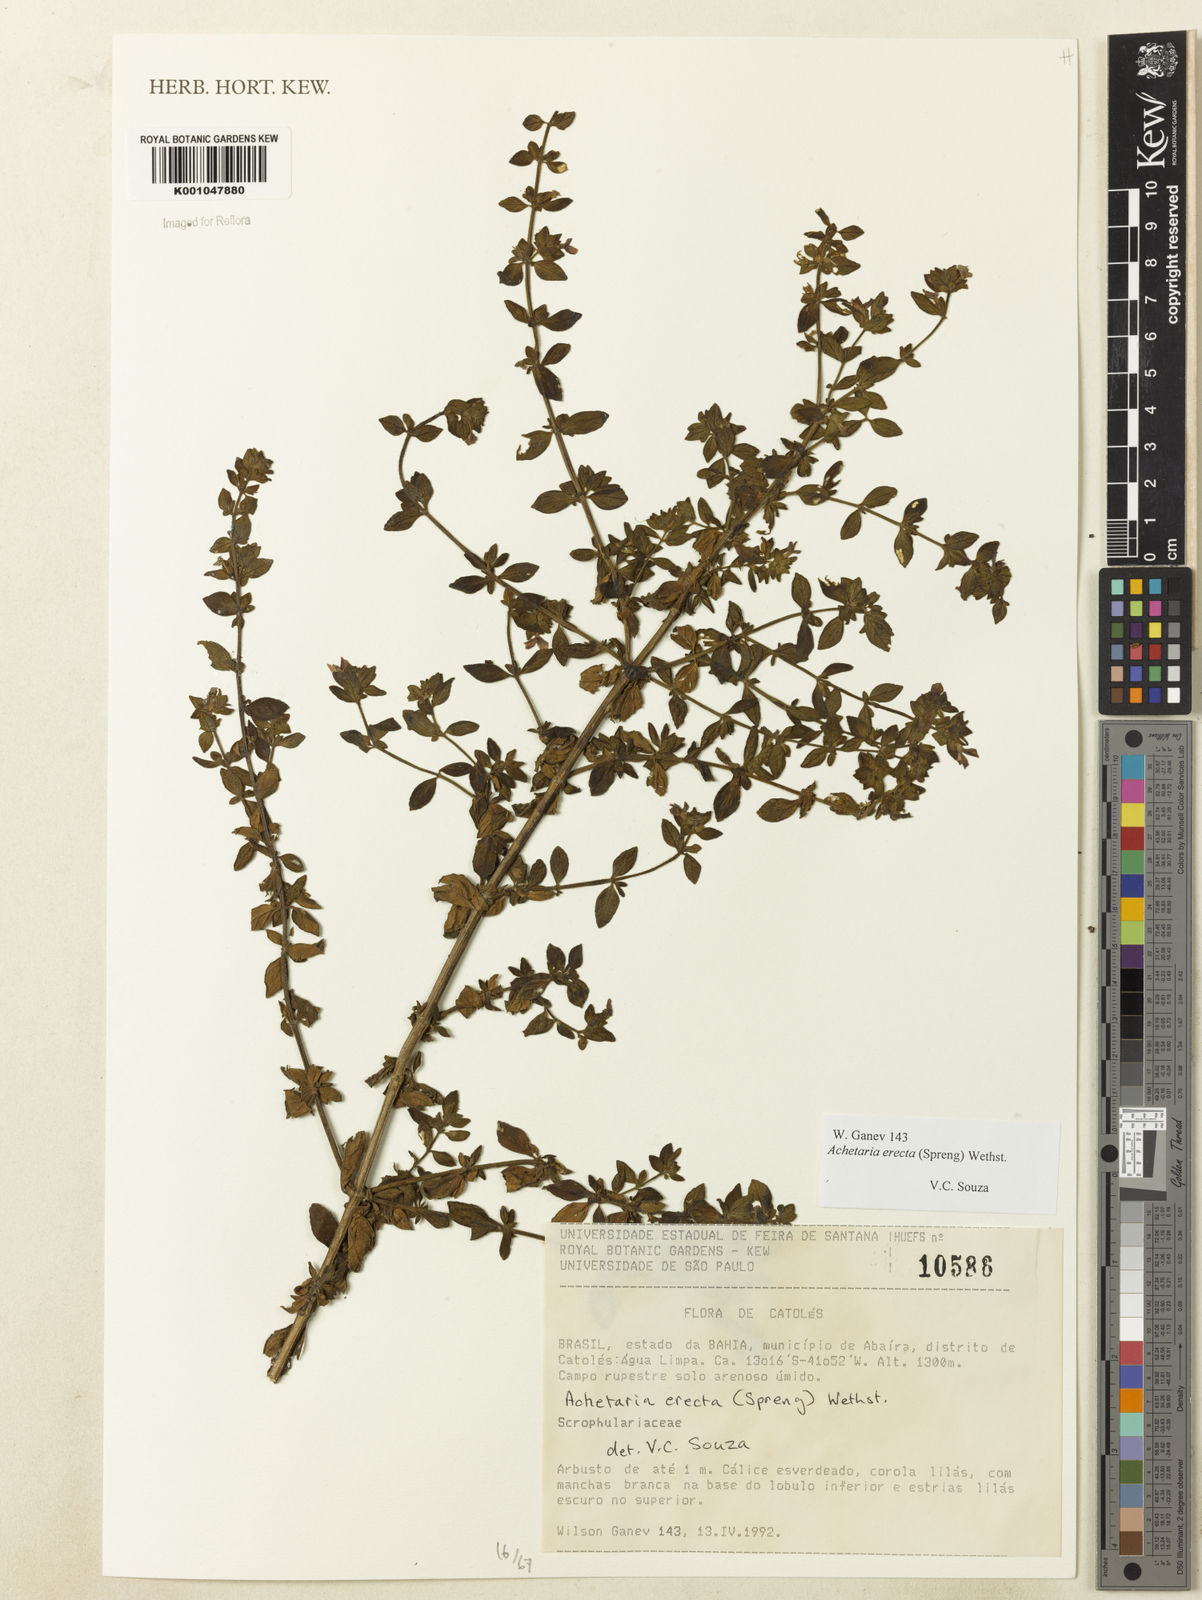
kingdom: Plantae
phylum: Tracheophyta
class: Magnoliopsida
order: Lamiales
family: Plantaginaceae
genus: Matourea
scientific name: Matourea erecta
